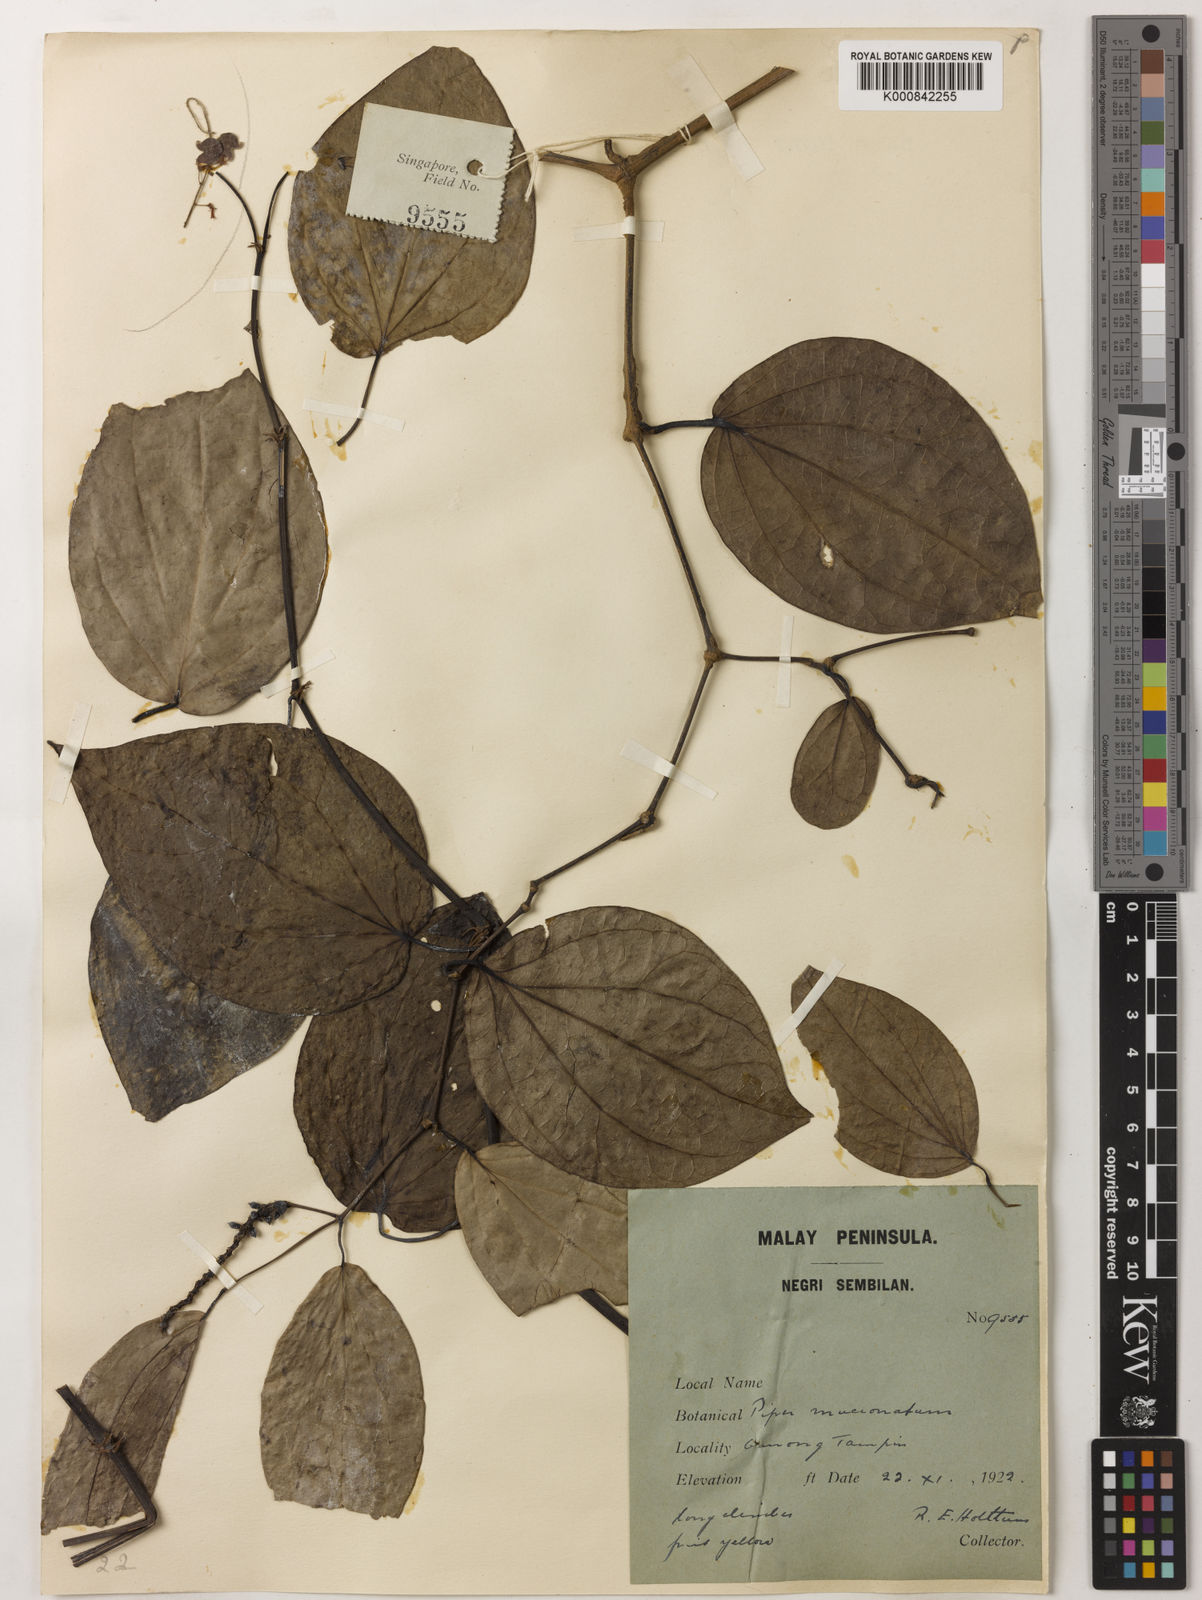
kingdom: Plantae
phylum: Tracheophyta
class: Magnoliopsida
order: Piperales
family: Piperaceae
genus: Piper
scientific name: Piper mucronatum
